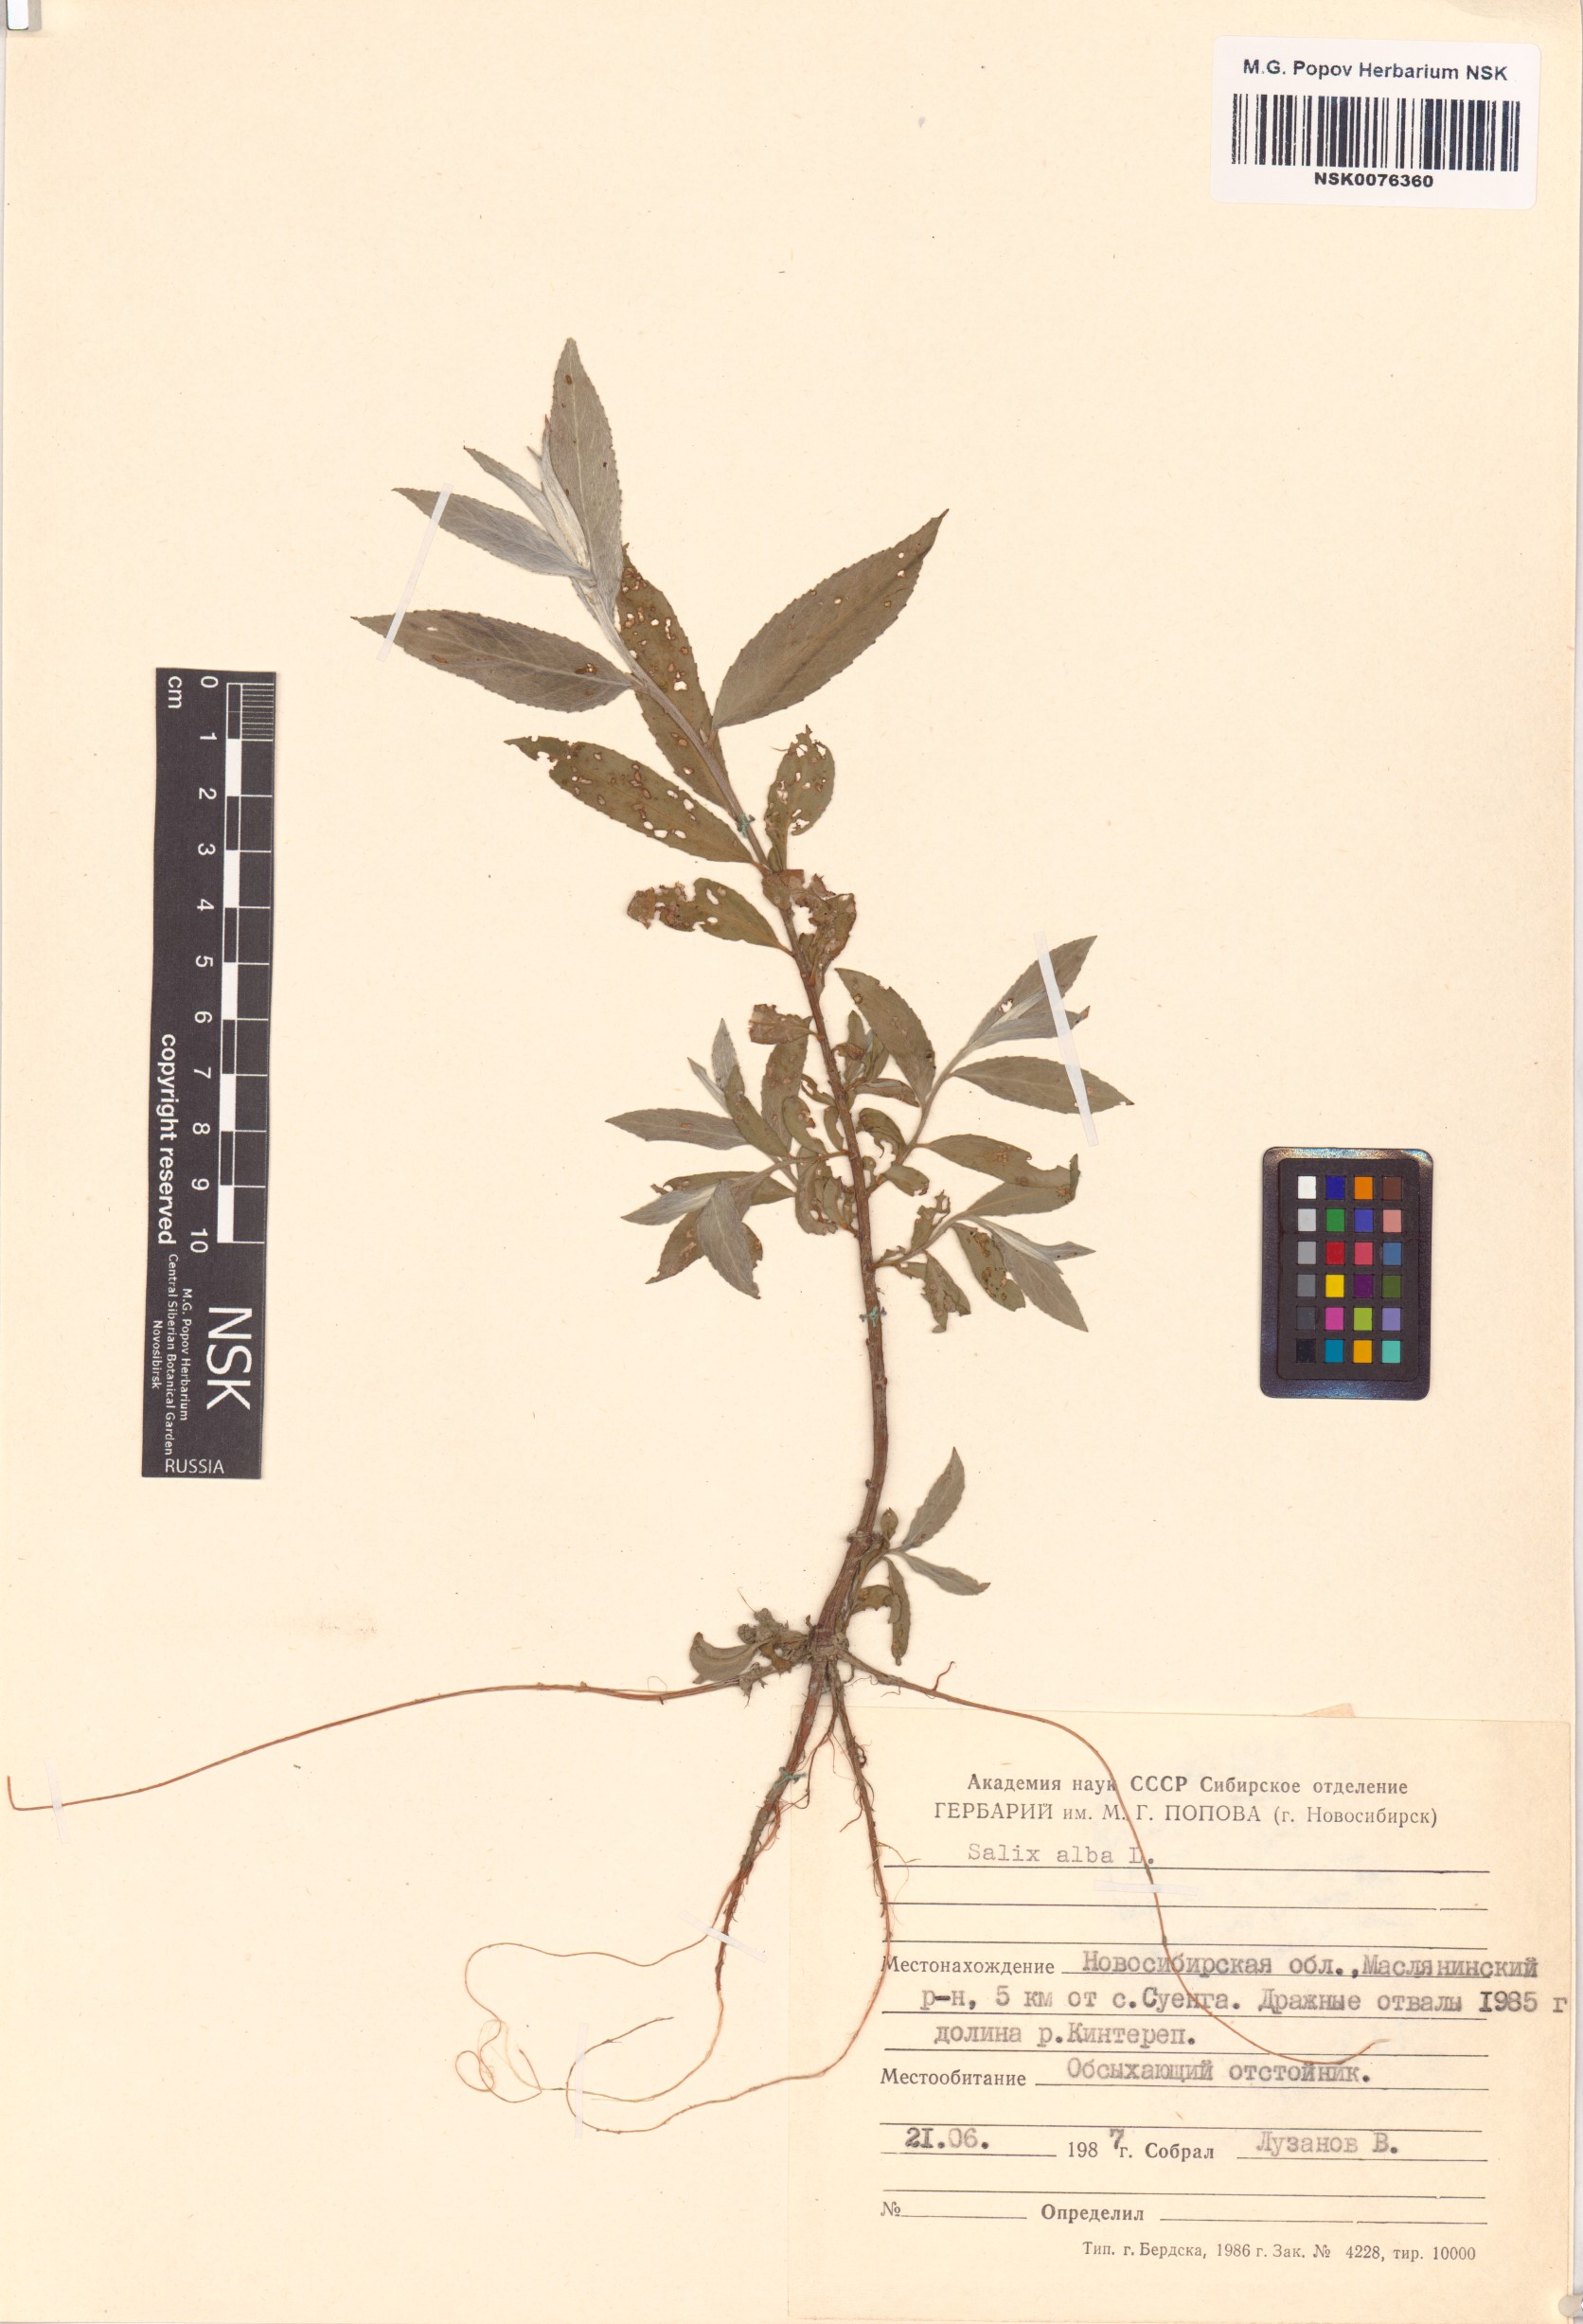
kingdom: Plantae
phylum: Tracheophyta
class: Magnoliopsida
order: Malpighiales
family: Salicaceae
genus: Salix
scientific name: Salix alba
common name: White willow
